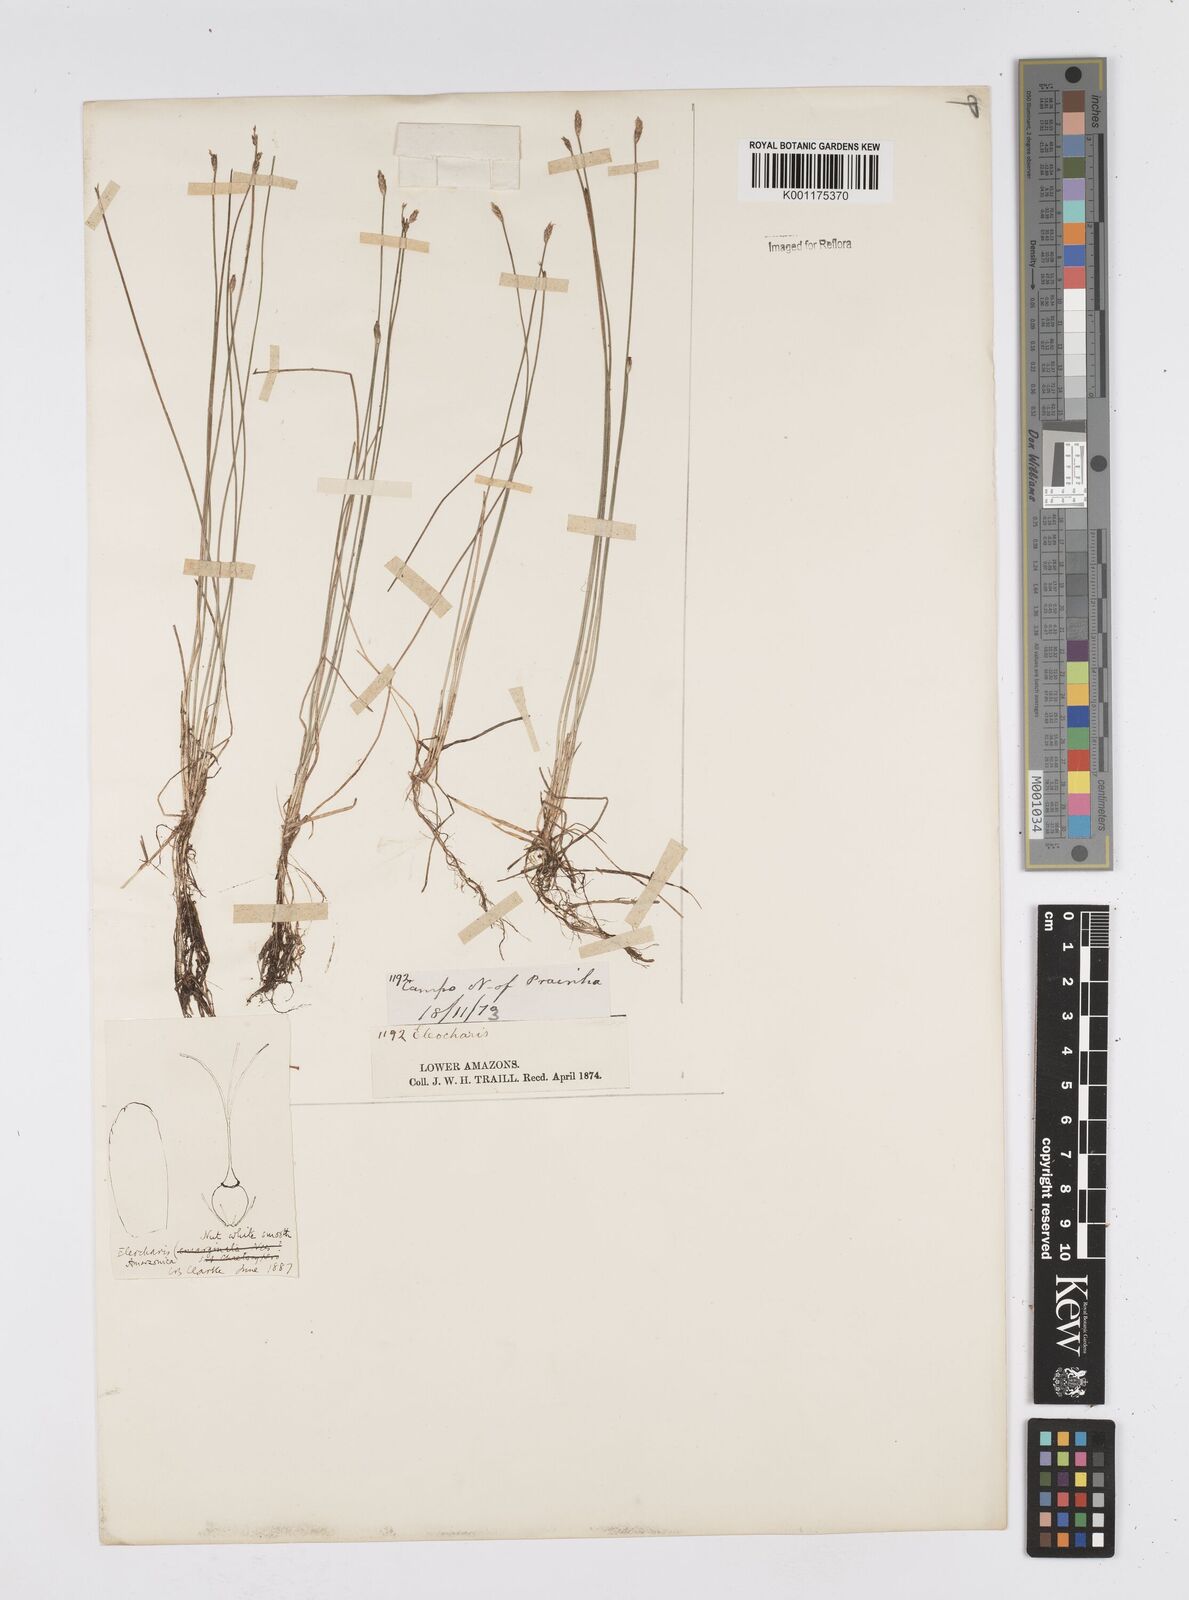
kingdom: Plantae
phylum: Tracheophyta
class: Liliopsida
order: Poales
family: Cyperaceae
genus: Eleocharis
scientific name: Eleocharis amazonica
